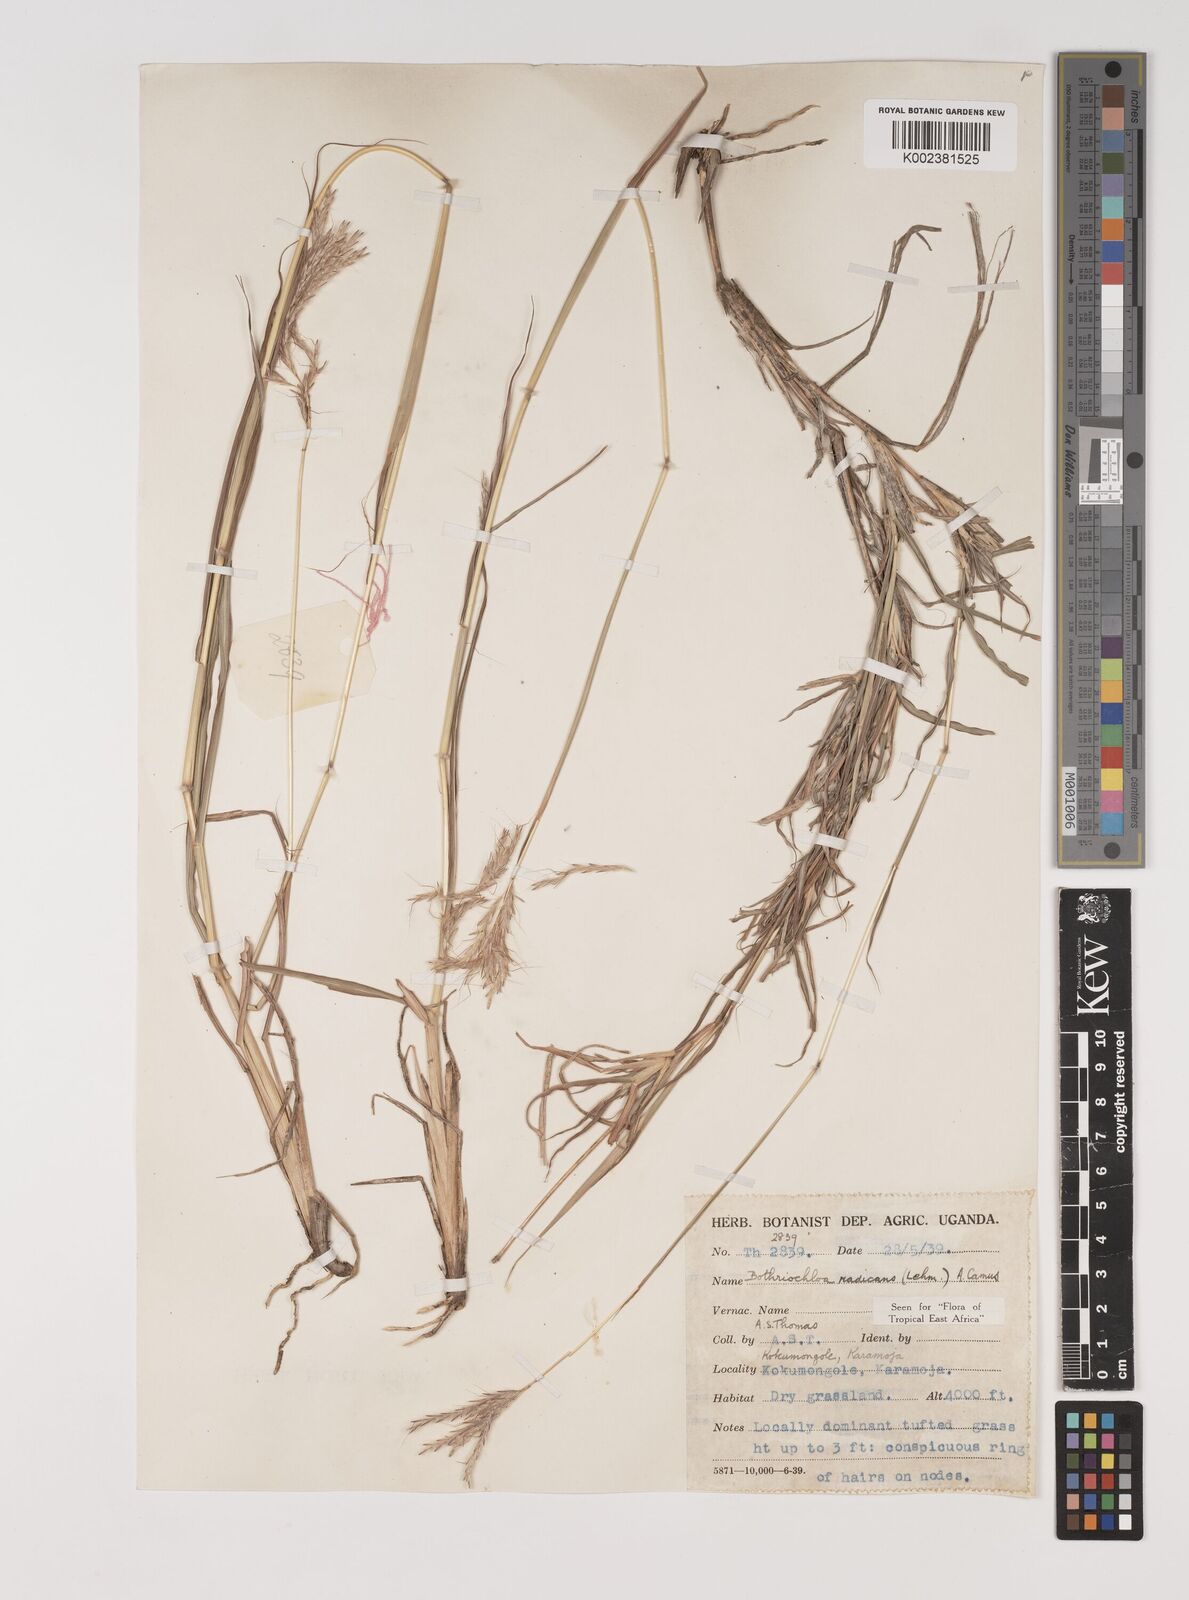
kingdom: Plantae
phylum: Tracheophyta
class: Liliopsida
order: Poales
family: Poaceae
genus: Bothriochloa
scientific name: Bothriochloa radicans
